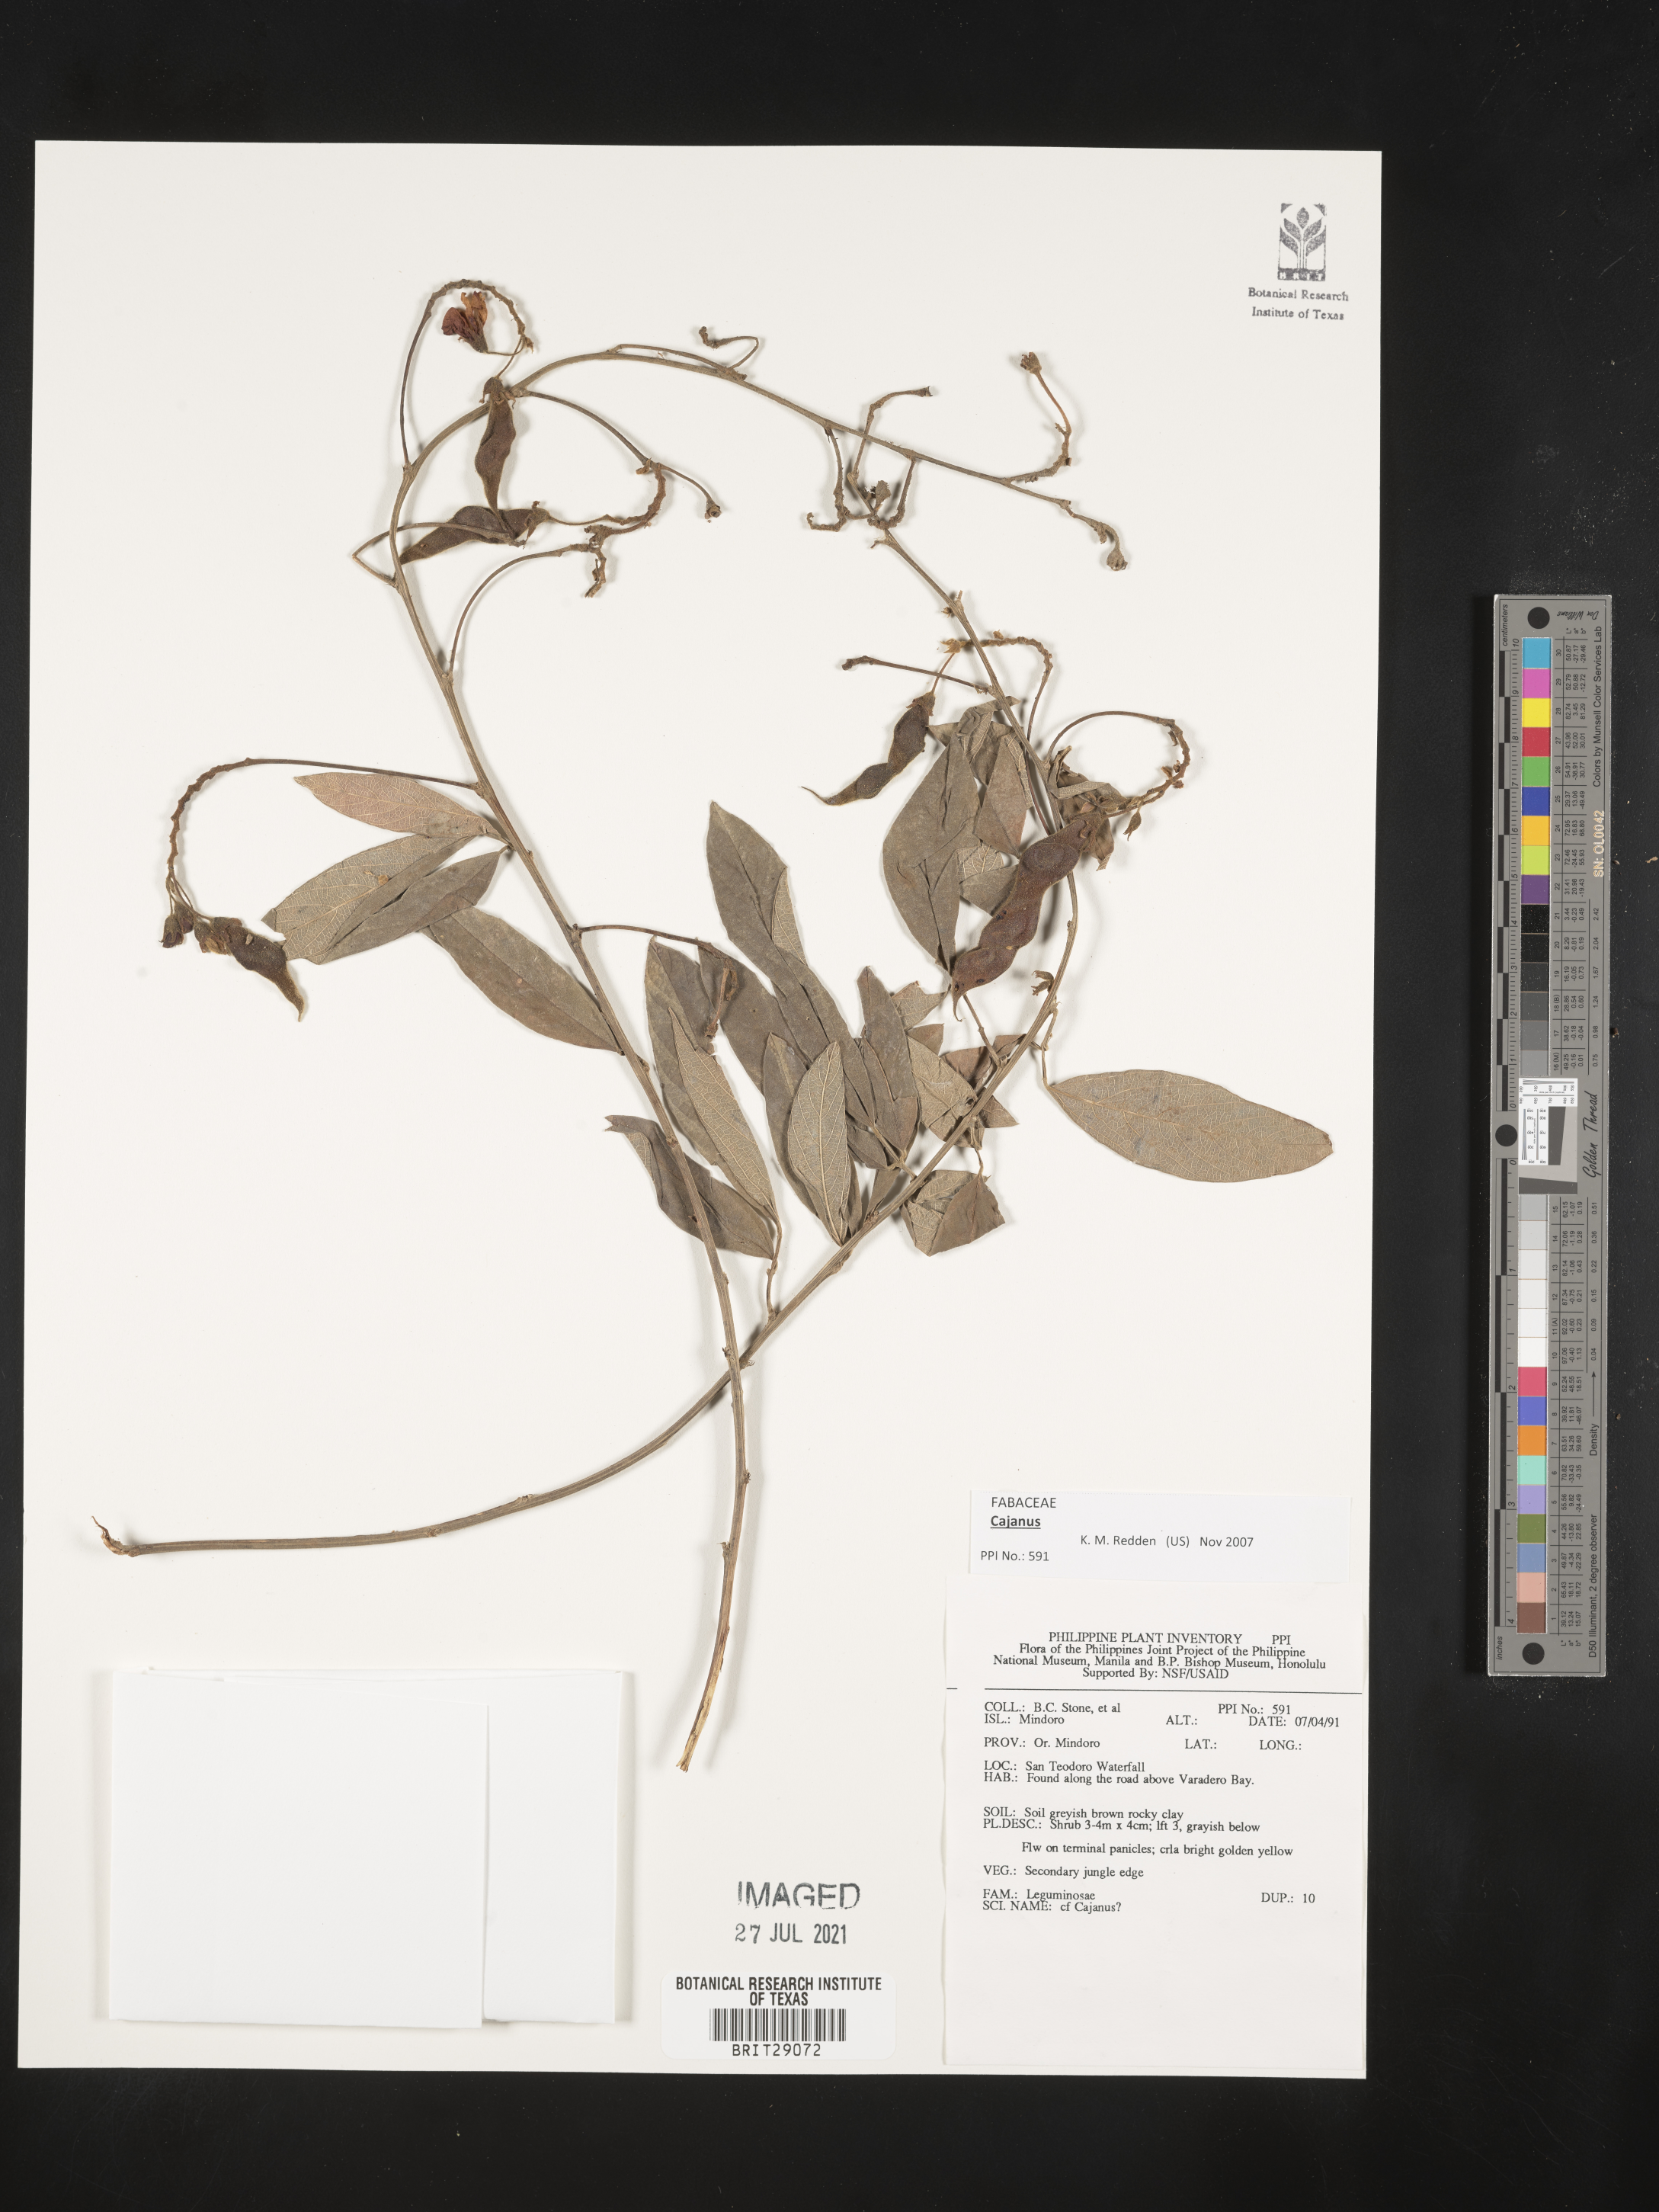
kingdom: Plantae
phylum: Tracheophyta
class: Magnoliopsida
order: Fabales
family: Fabaceae
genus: Cajanus
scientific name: Cajanus
